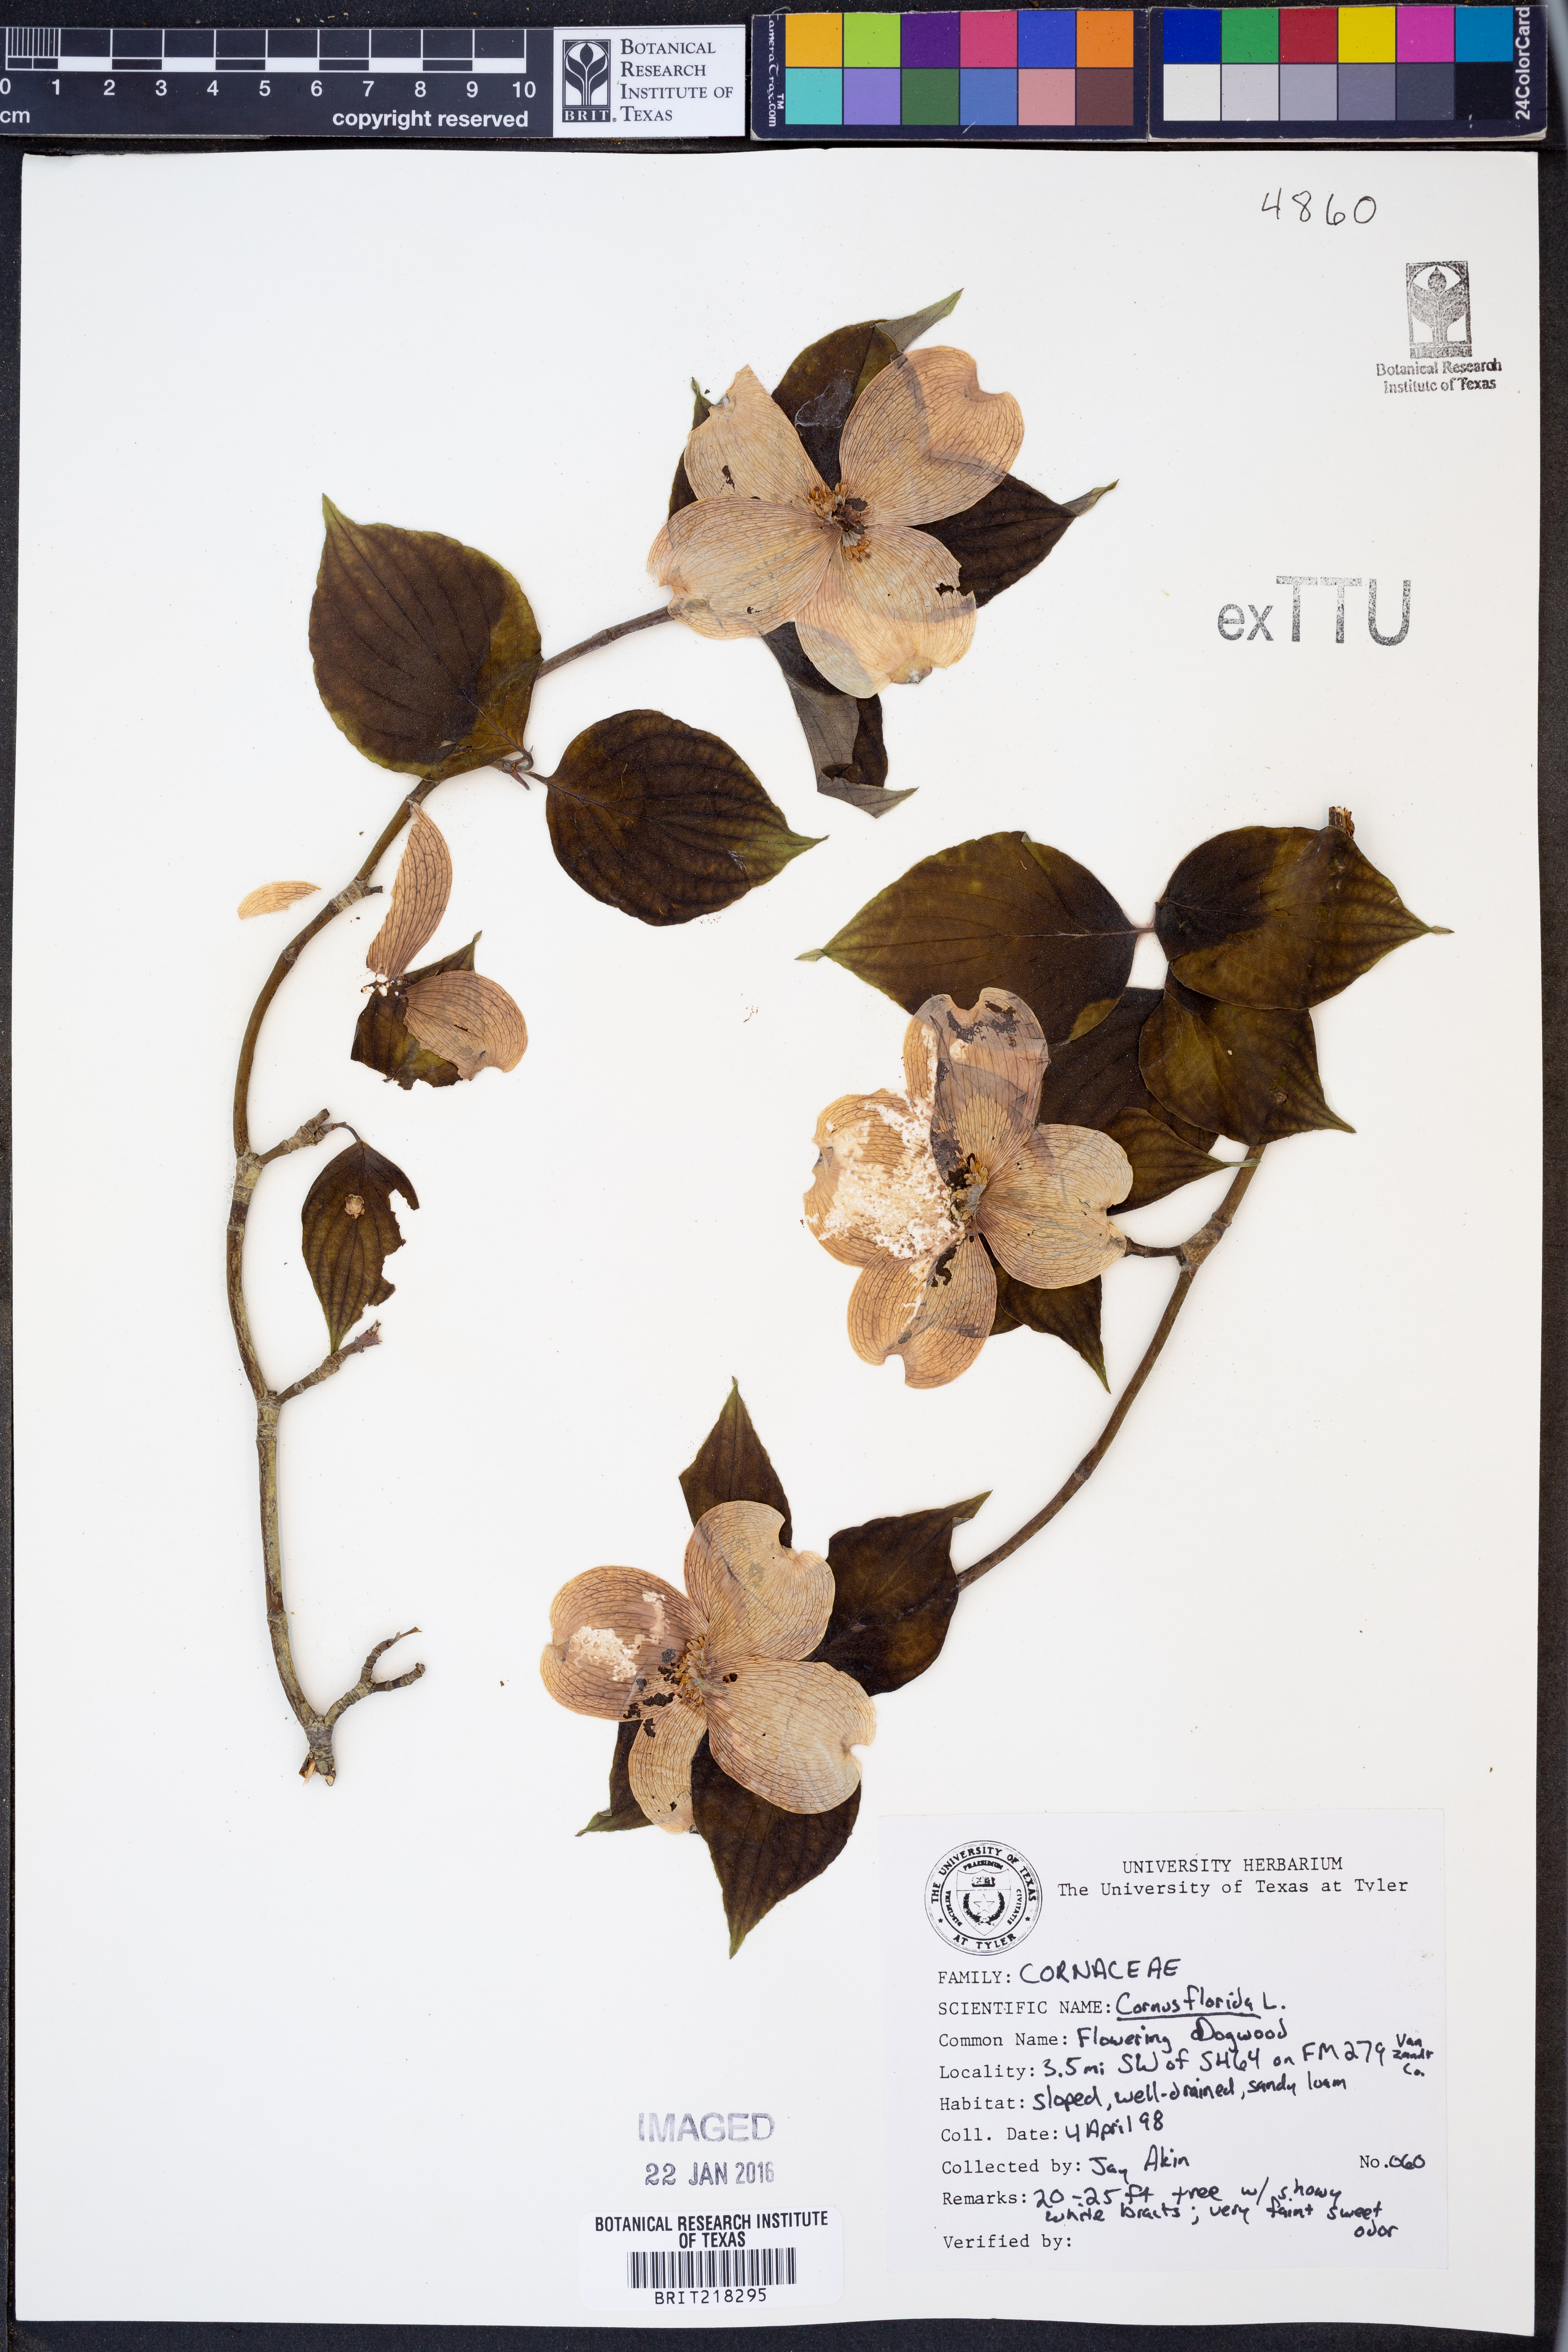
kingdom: Plantae
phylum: Tracheophyta
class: Magnoliopsida
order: Cornales
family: Cornaceae
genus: Cornus
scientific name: Cornus florida
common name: Flowering dogwood
